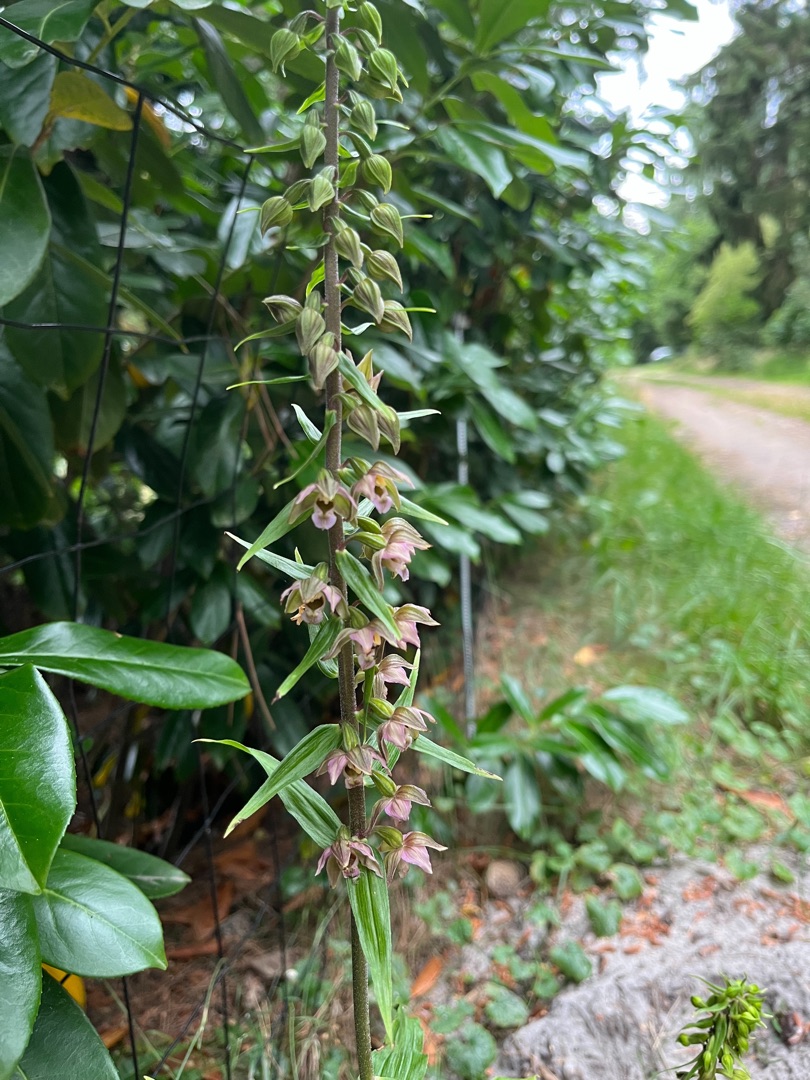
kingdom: Plantae
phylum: Tracheophyta
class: Liliopsida
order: Asparagales
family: Orchidaceae
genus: Epipactis
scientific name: Epipactis helleborine
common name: Skov-hullæbe
